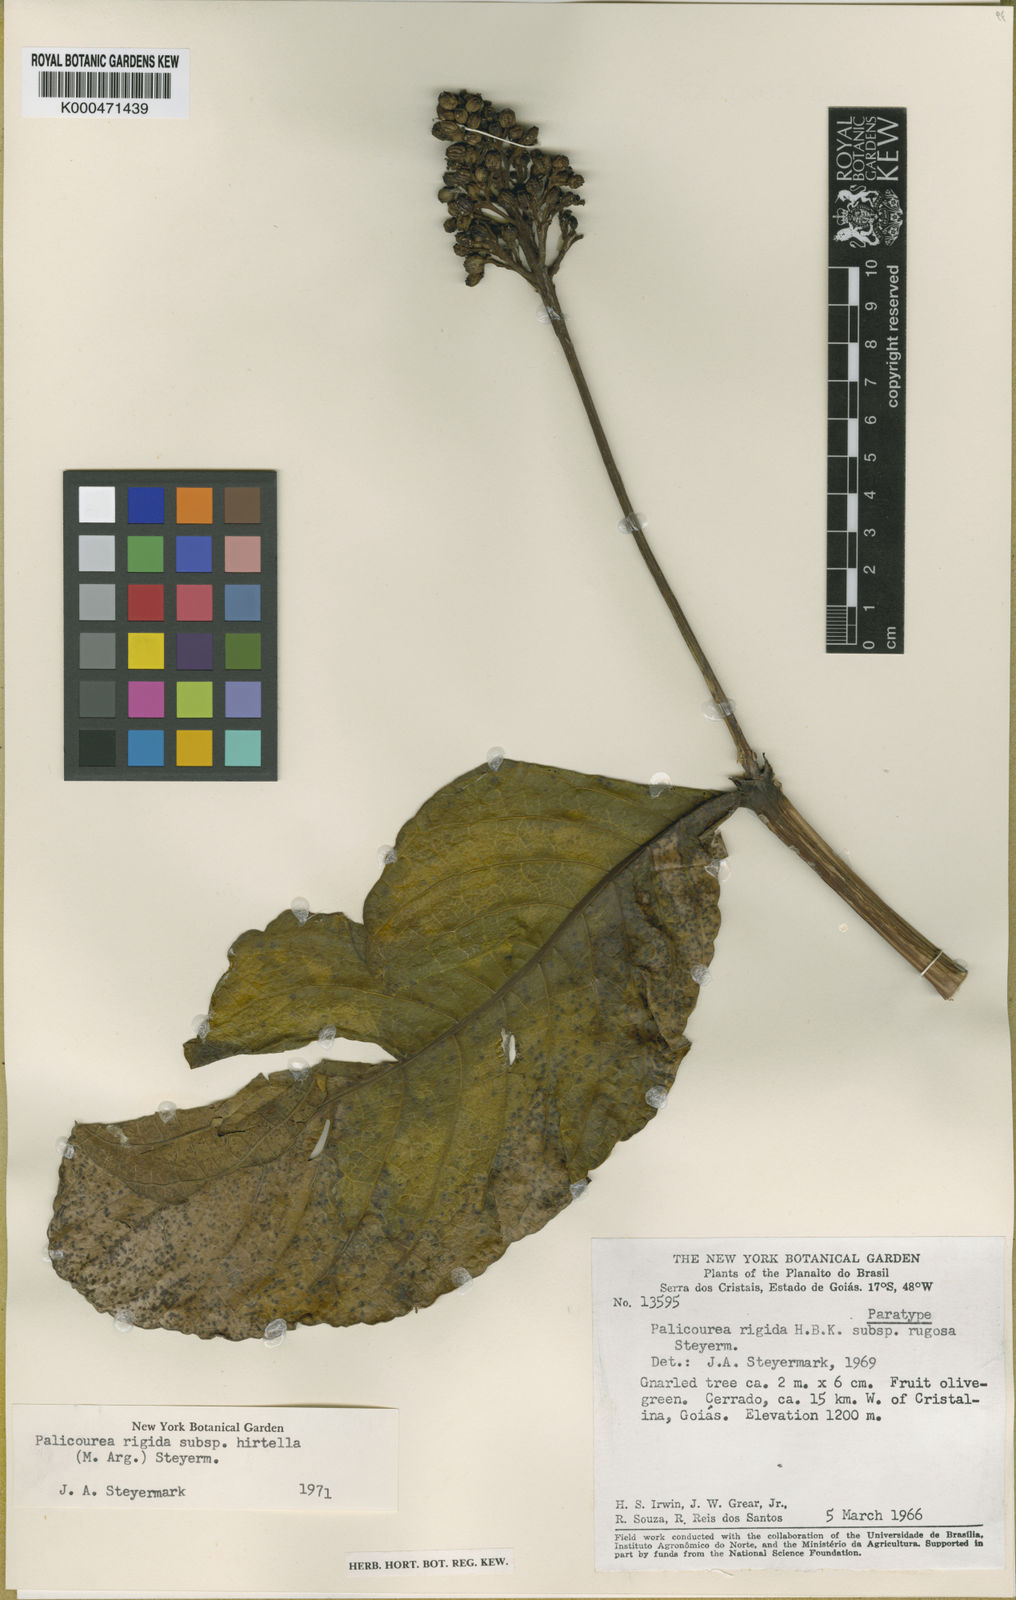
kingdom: Plantae
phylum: Tracheophyta
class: Magnoliopsida
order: Gentianales
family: Rubiaceae
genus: Palicourea
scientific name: Palicourea rigida
